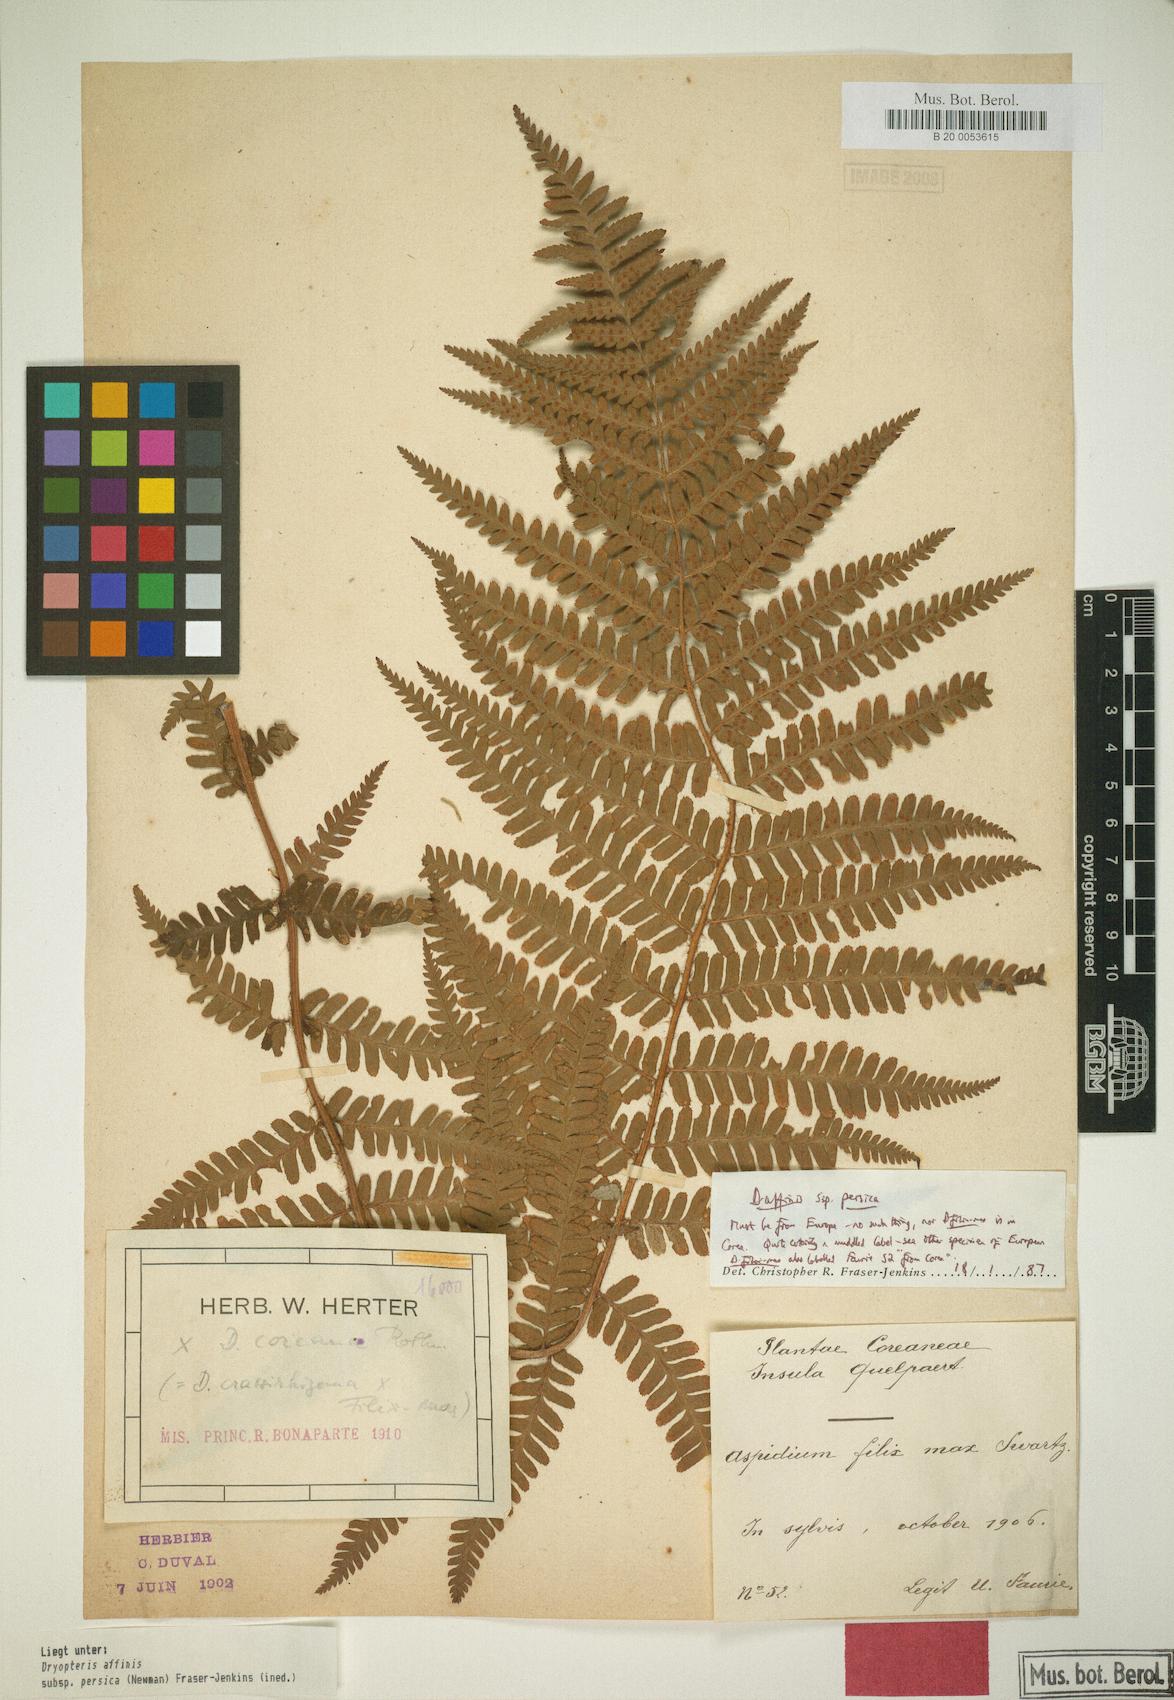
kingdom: Plantae
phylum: Tracheophyta
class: Polypodiopsida
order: Polypodiales
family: Dryopteridaceae
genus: Dryopteris
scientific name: Dryopteris shorapanensis
